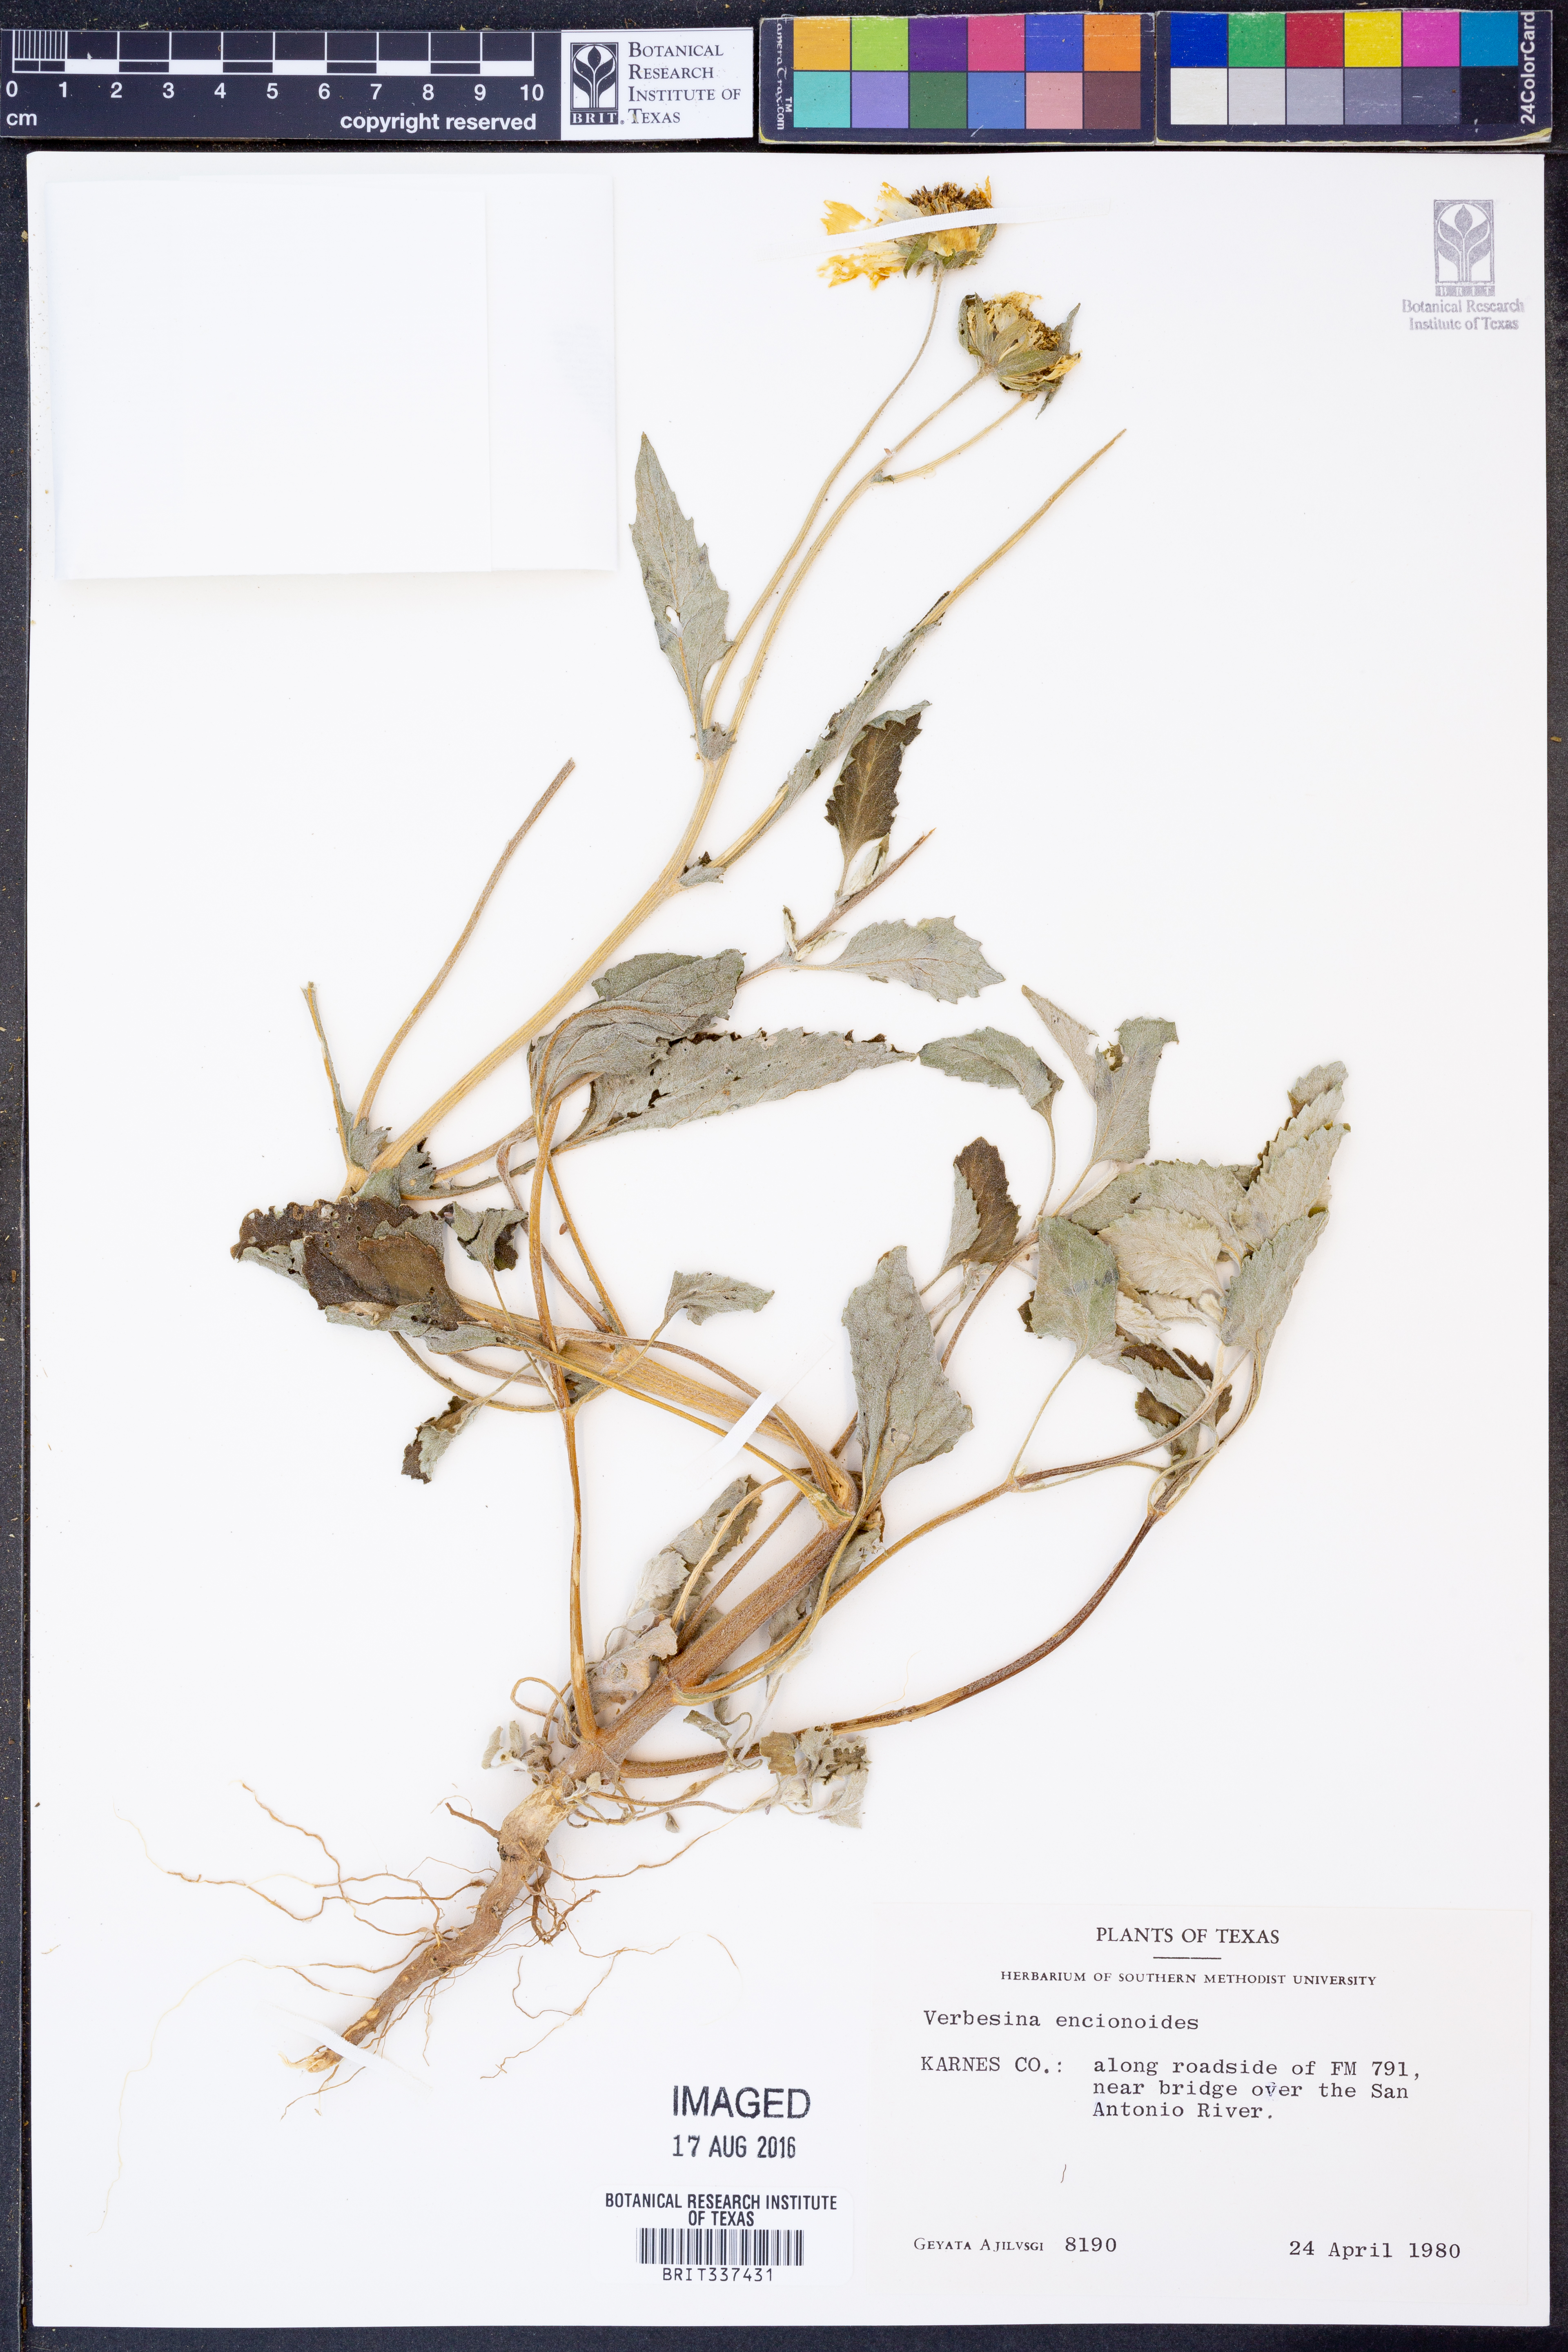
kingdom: Plantae
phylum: Tracheophyta
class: Magnoliopsida
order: Asterales
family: Asteraceae
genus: Verbesina
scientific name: Verbesina encelioides
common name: Golden crownbeard
